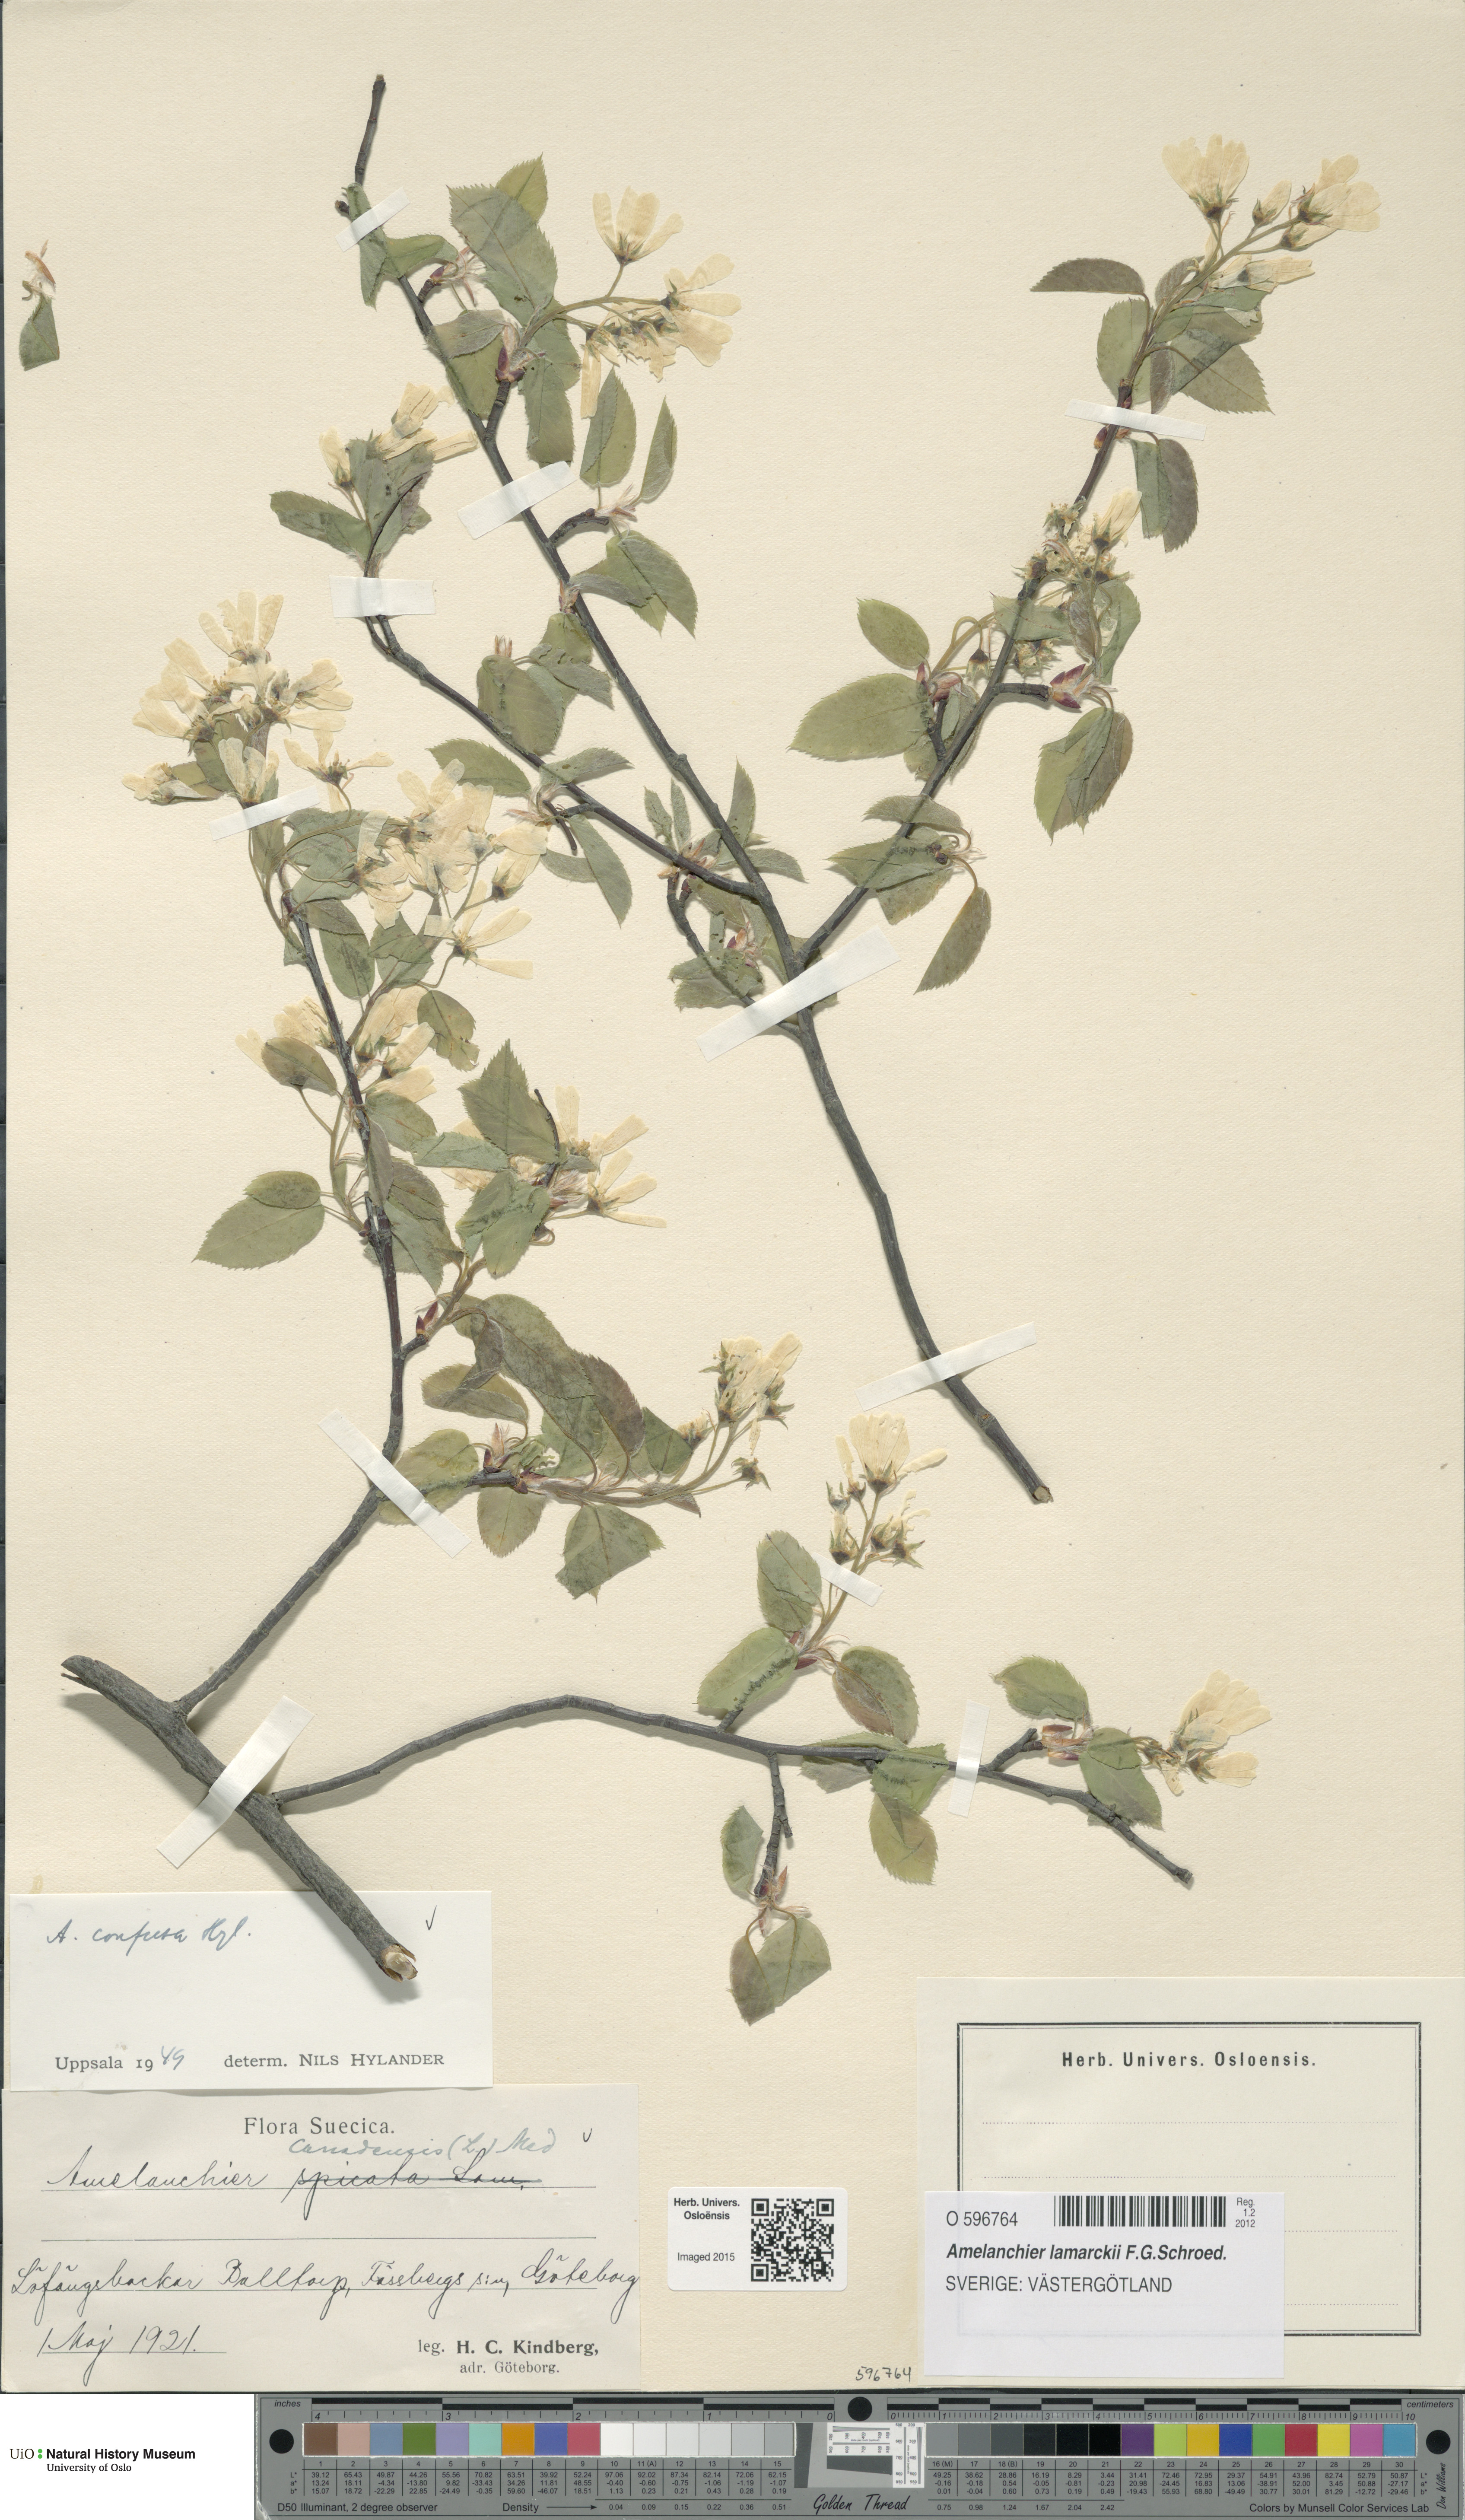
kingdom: Plantae
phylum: Tracheophyta
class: Magnoliopsida
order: Rosales
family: Rosaceae
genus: Amelanchier
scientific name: Amelanchier lamarckii
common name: Juneberry
